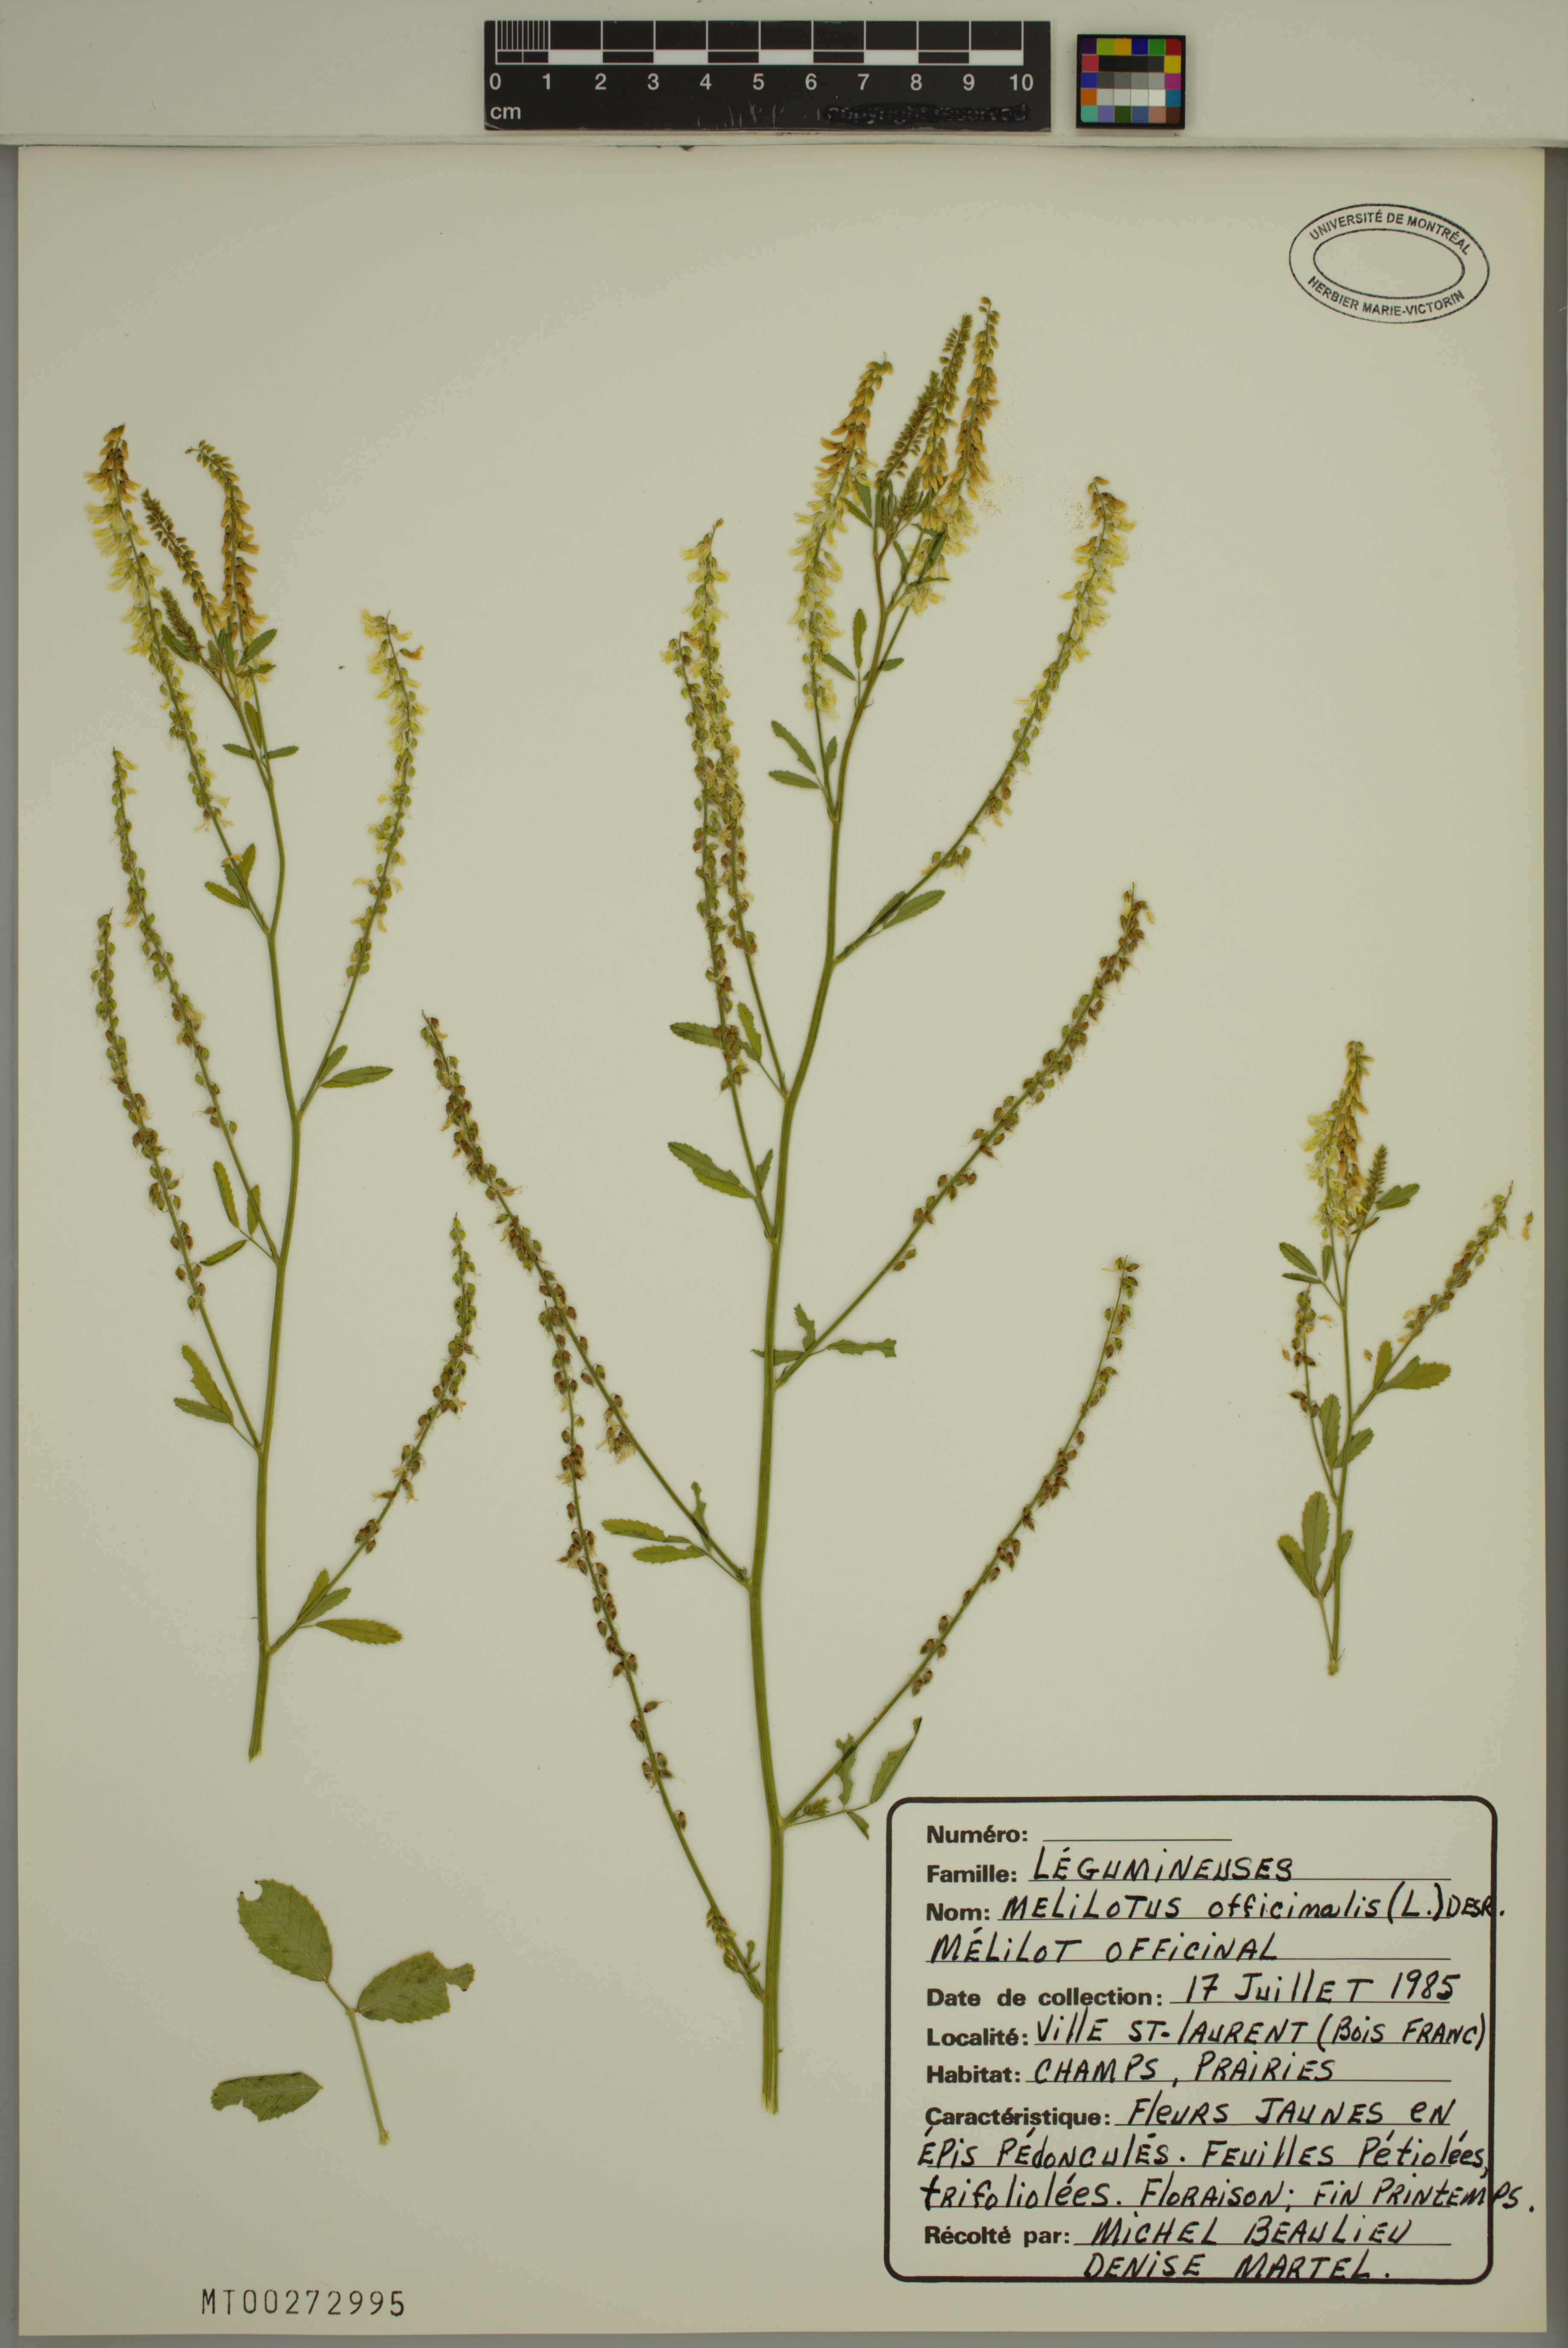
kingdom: Plantae
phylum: Tracheophyta
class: Magnoliopsida
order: Fabales
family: Fabaceae
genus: Melilotus
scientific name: Melilotus officinalis
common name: Sweetclover
